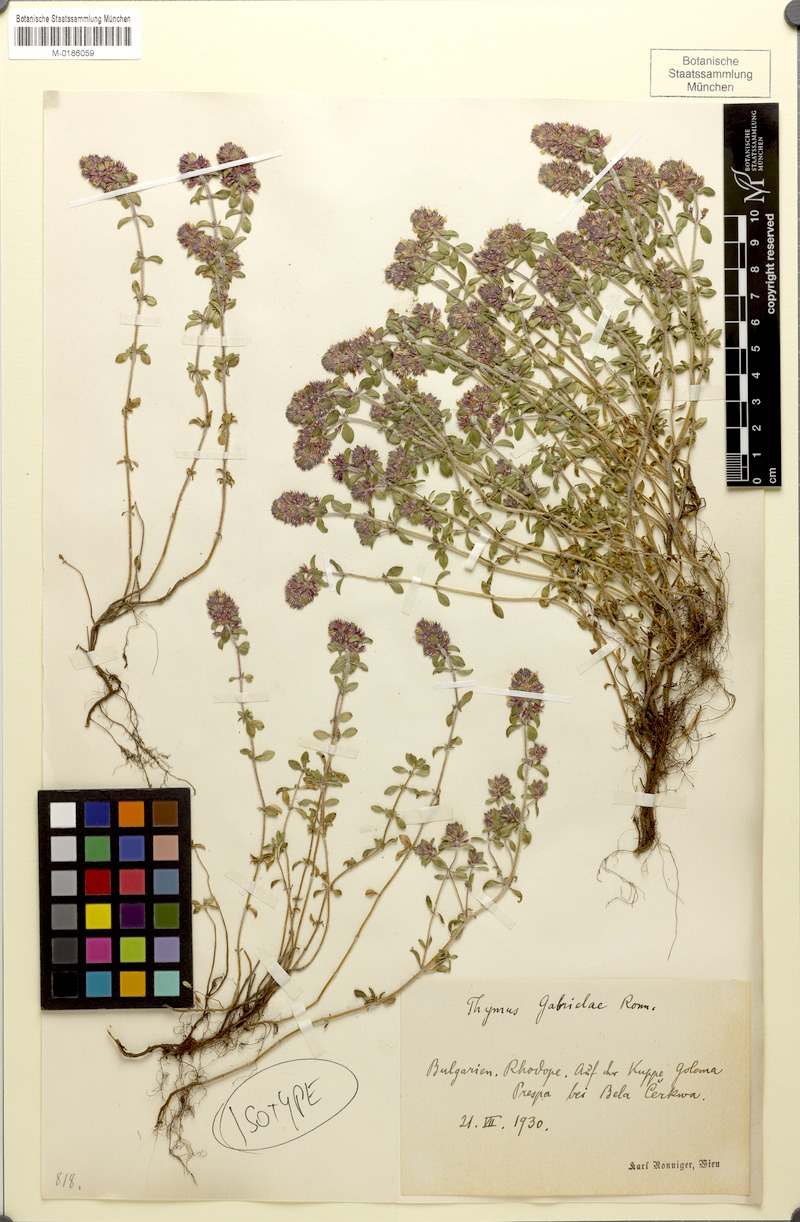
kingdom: Plantae
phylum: Tracheophyta
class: Magnoliopsida
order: Lamiales
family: Lamiaceae
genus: Thymus
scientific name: Thymus thracicus
